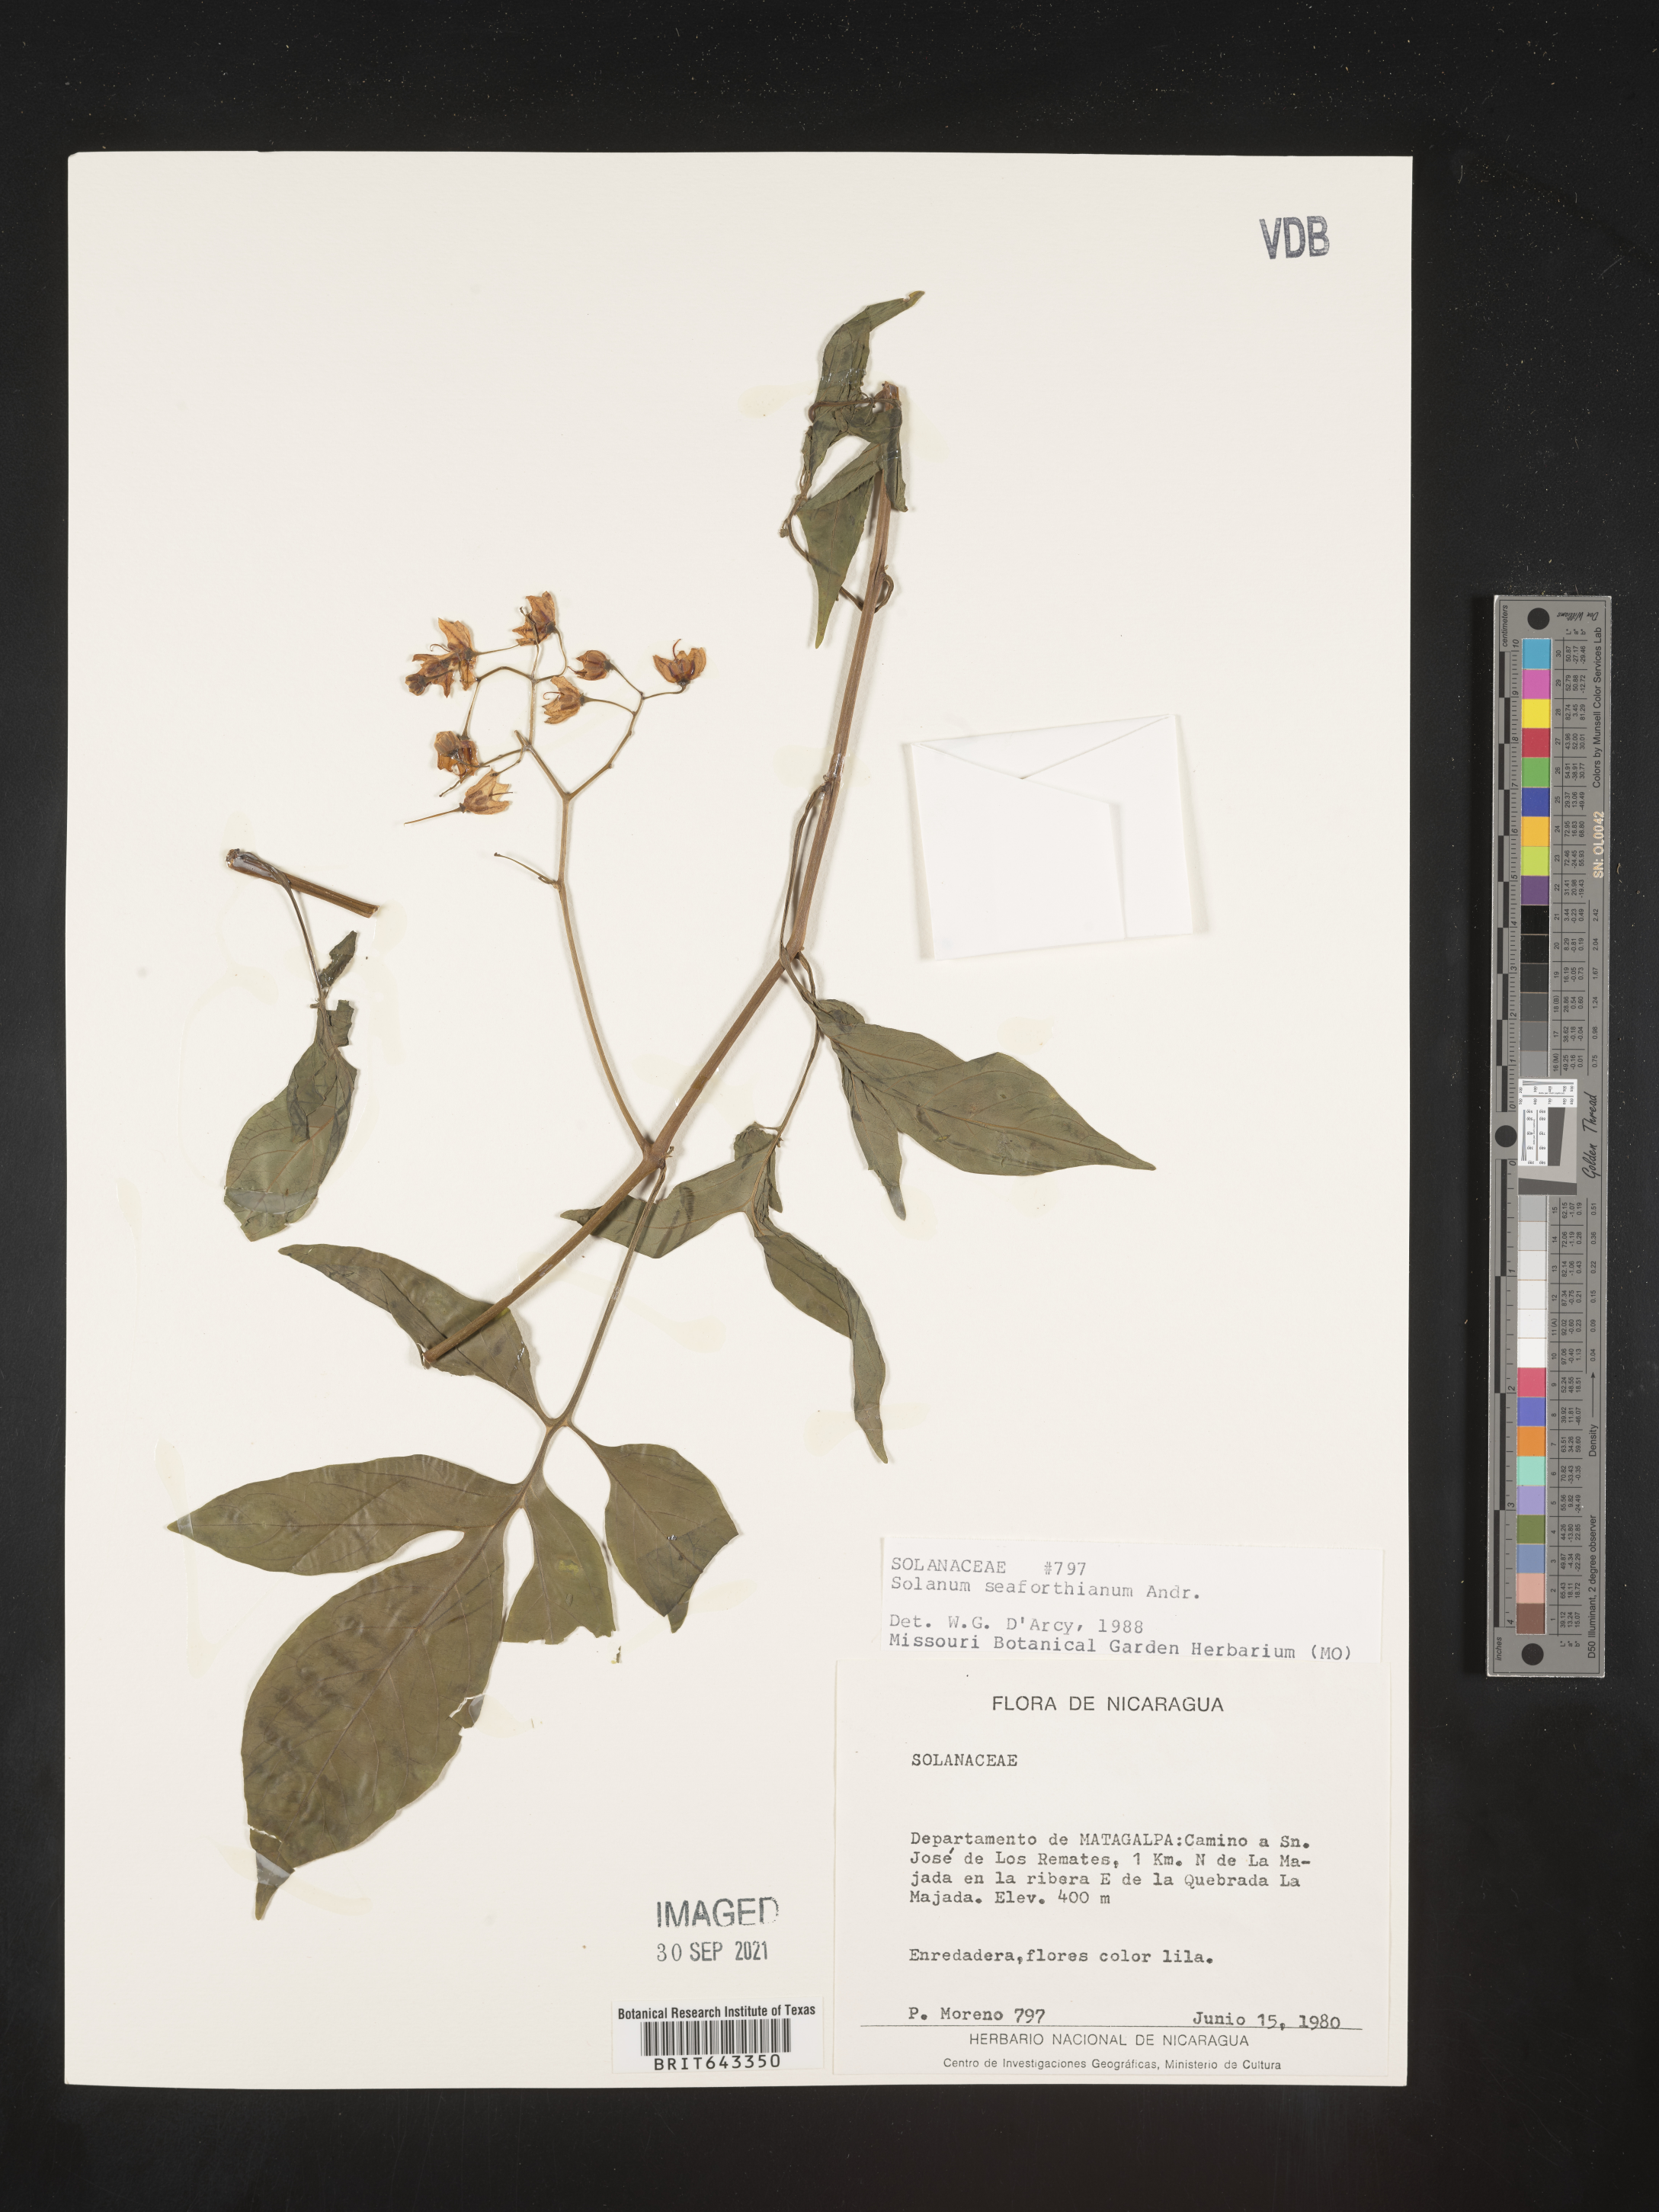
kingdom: Plantae
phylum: Tracheophyta
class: Magnoliopsida
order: Solanales
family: Solanaceae
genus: Solanum
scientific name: Solanum
